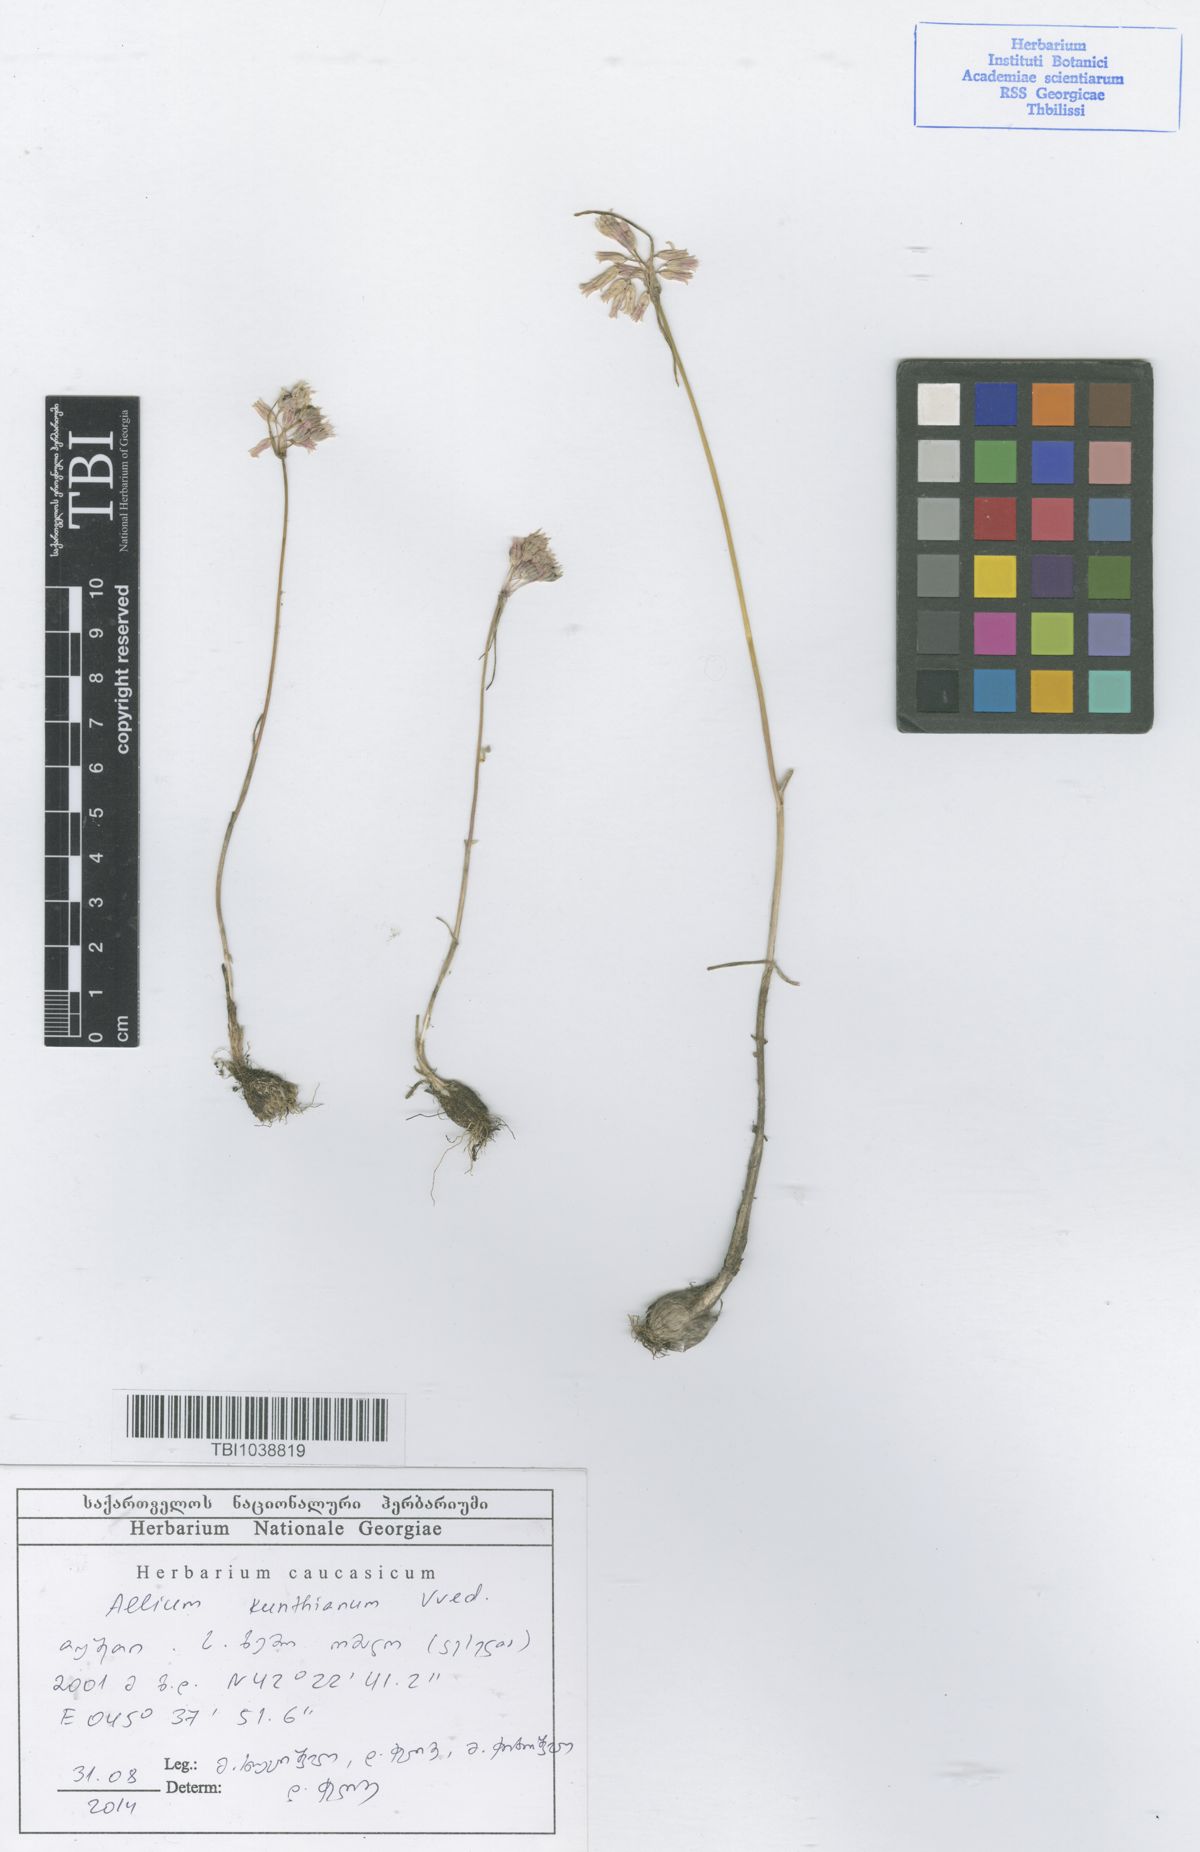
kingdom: Plantae
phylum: Tracheophyta
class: Liliopsida
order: Asparagales
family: Amaryllidaceae
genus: Allium
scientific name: Allium kunthianum
